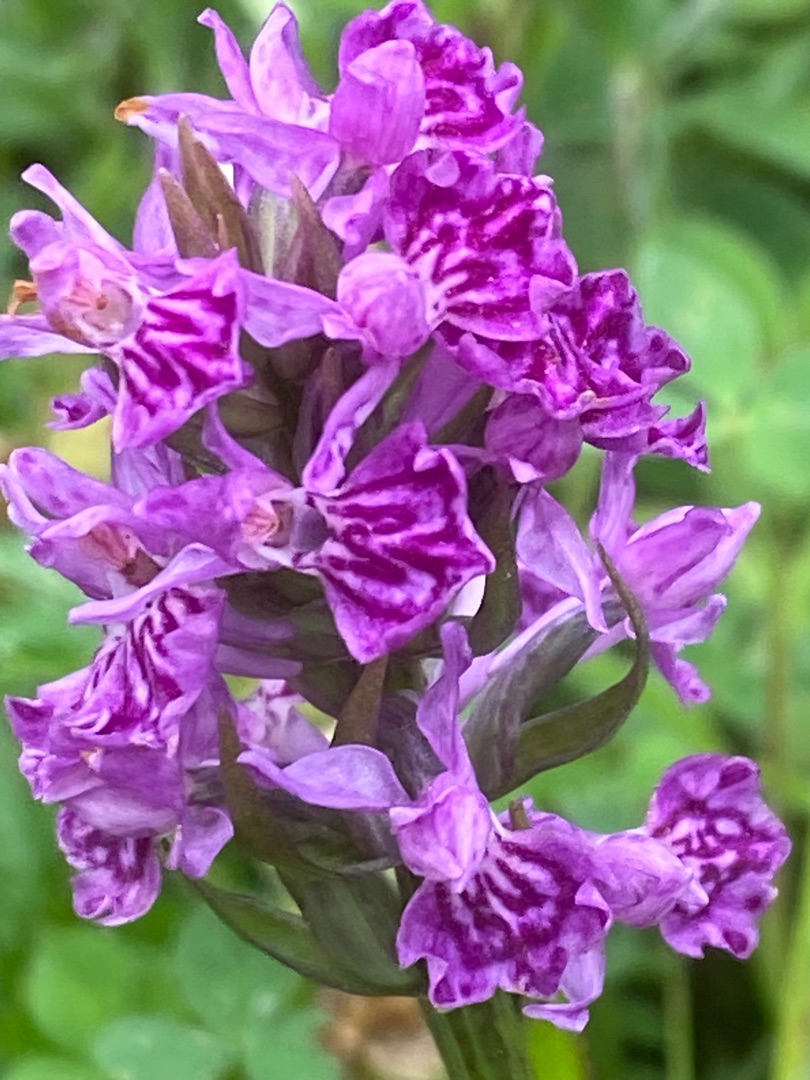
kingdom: Plantae
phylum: Tracheophyta
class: Liliopsida
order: Asparagales
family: Orchidaceae
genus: Dactylorhiza
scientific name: Dactylorhiza majalis
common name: Vendsyssel-gøgeurt
